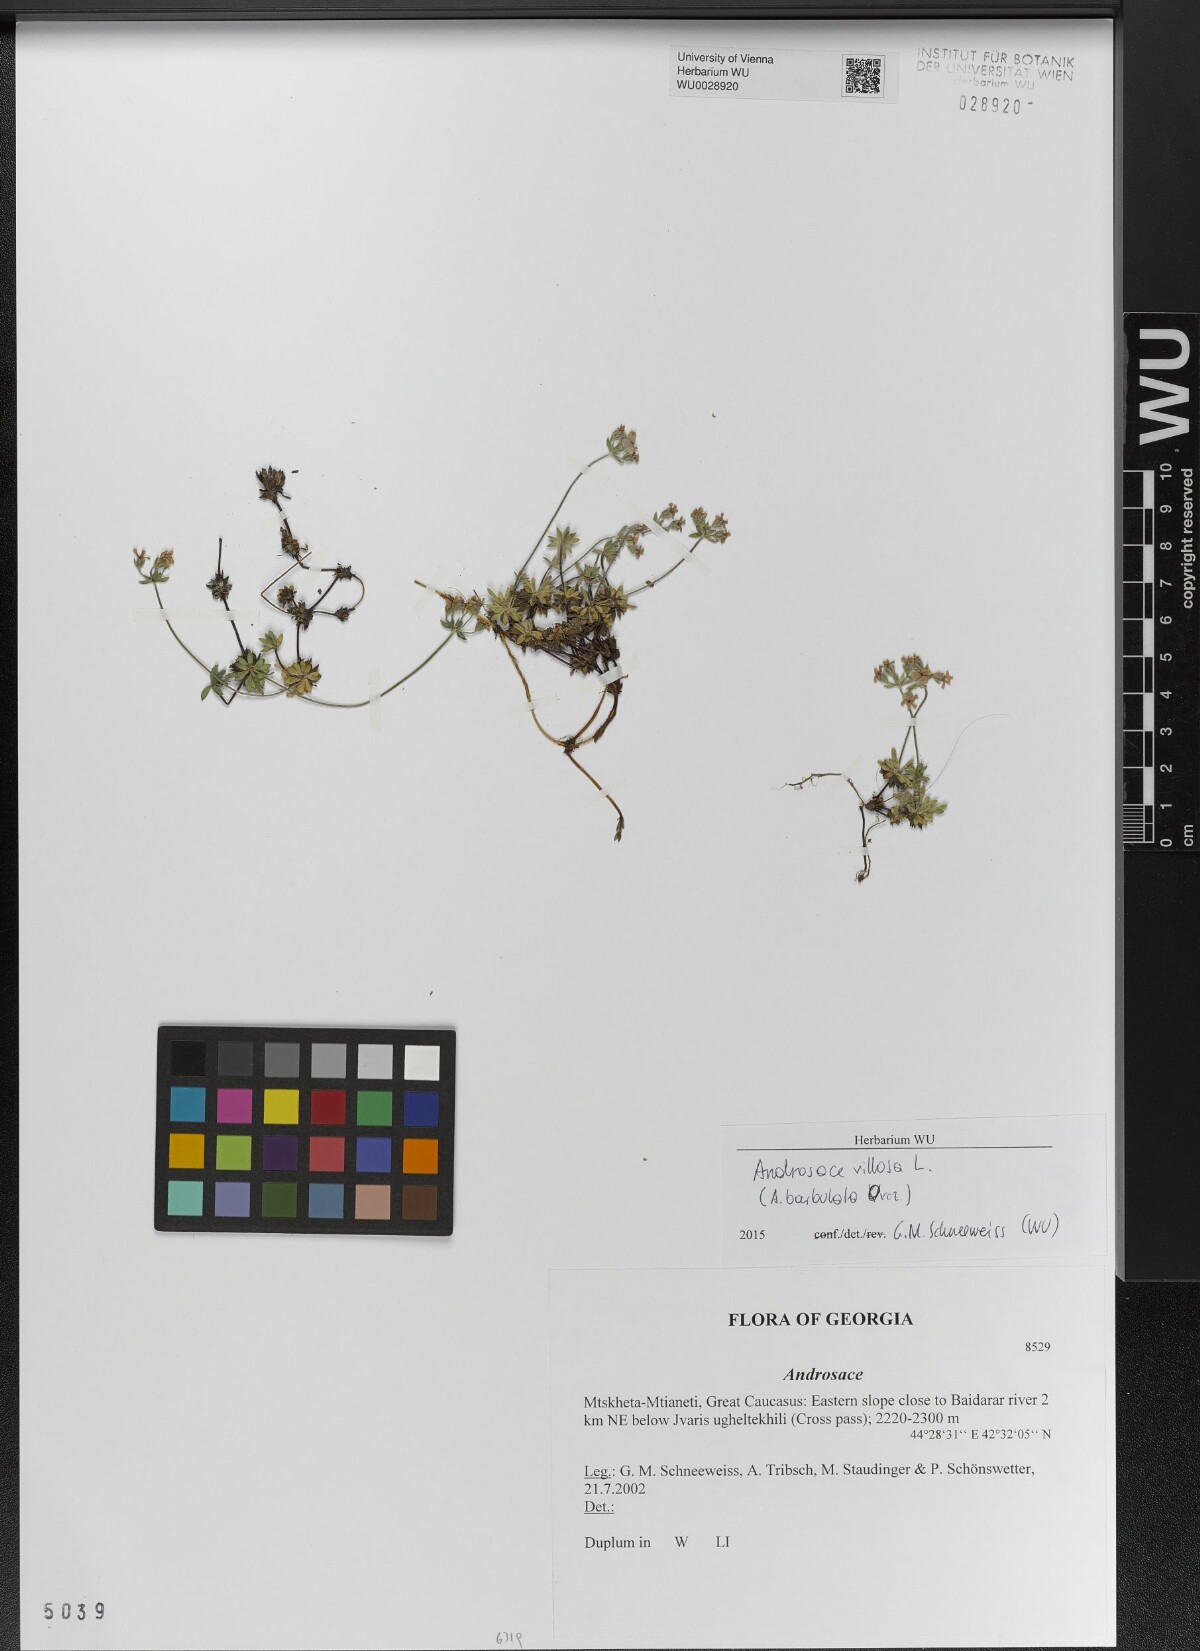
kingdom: Plantae
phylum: Tracheophyta
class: Magnoliopsida
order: Ericales
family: Primulaceae
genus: Androsace
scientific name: Androsace
